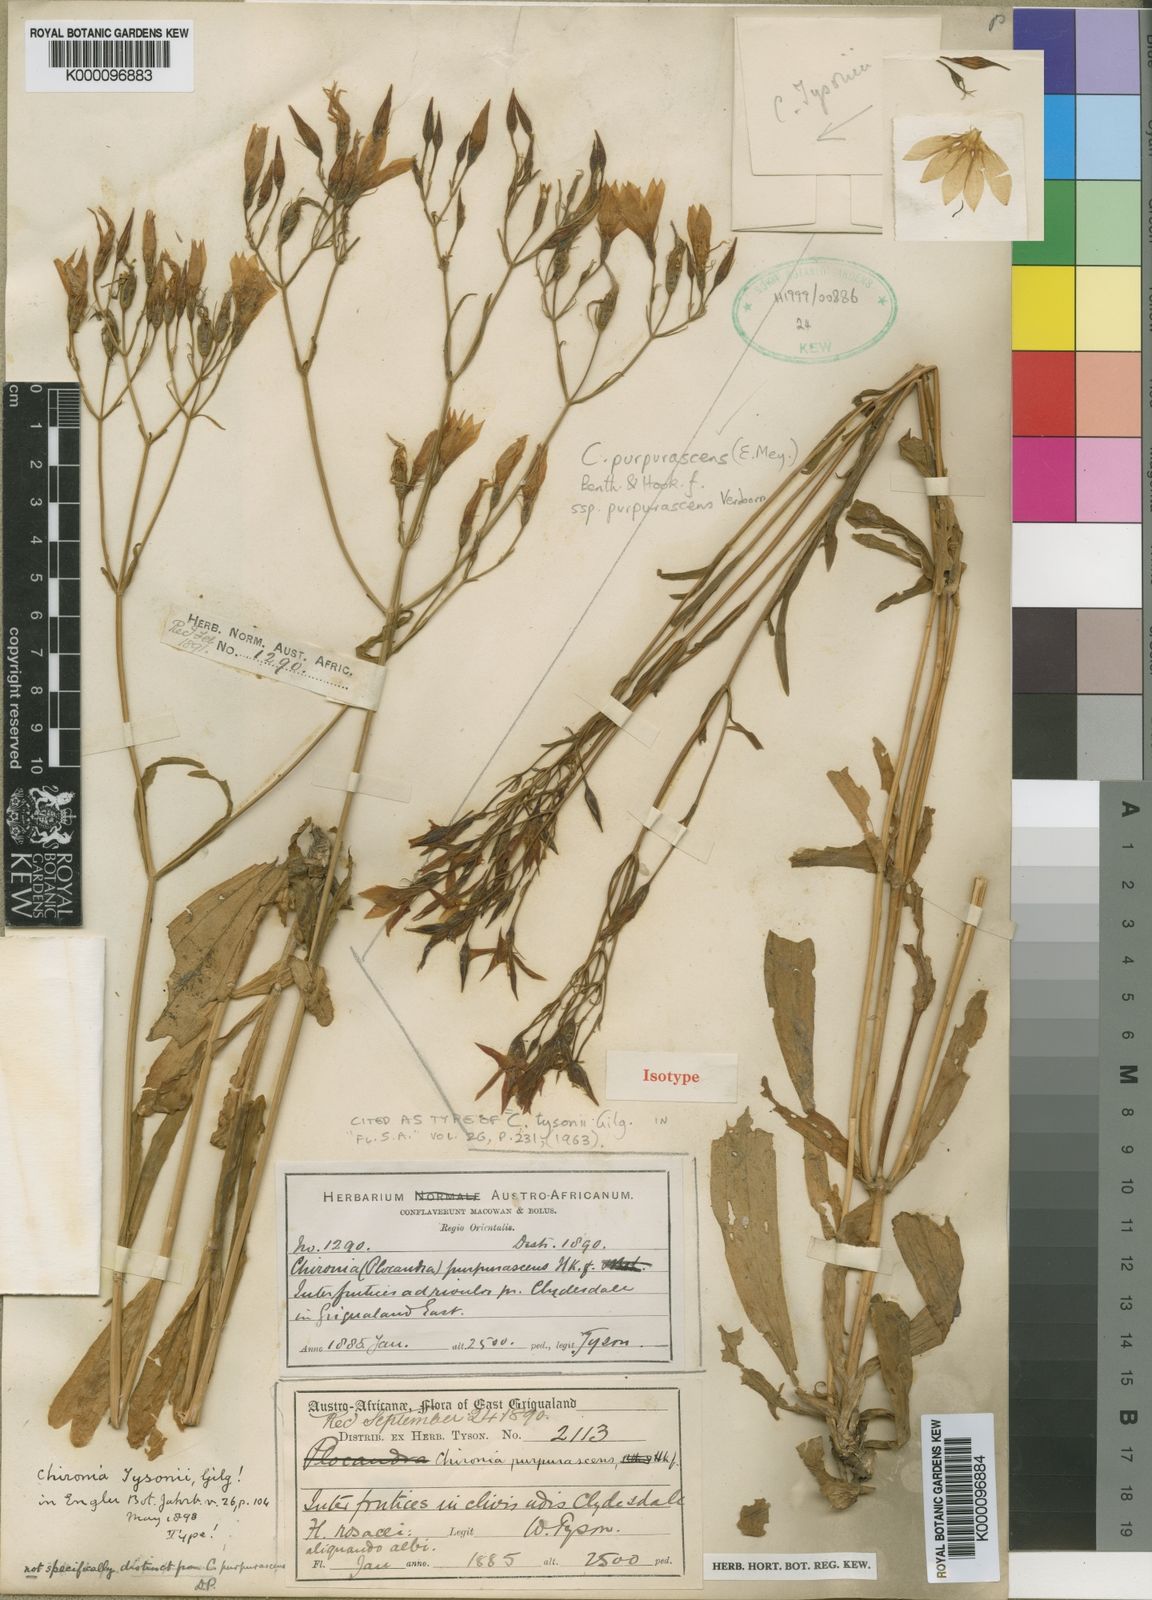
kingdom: Plantae
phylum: Tracheophyta
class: Magnoliopsida
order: Gentianales
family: Gentianaceae
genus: Chironia
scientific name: Chironia purpurascens
